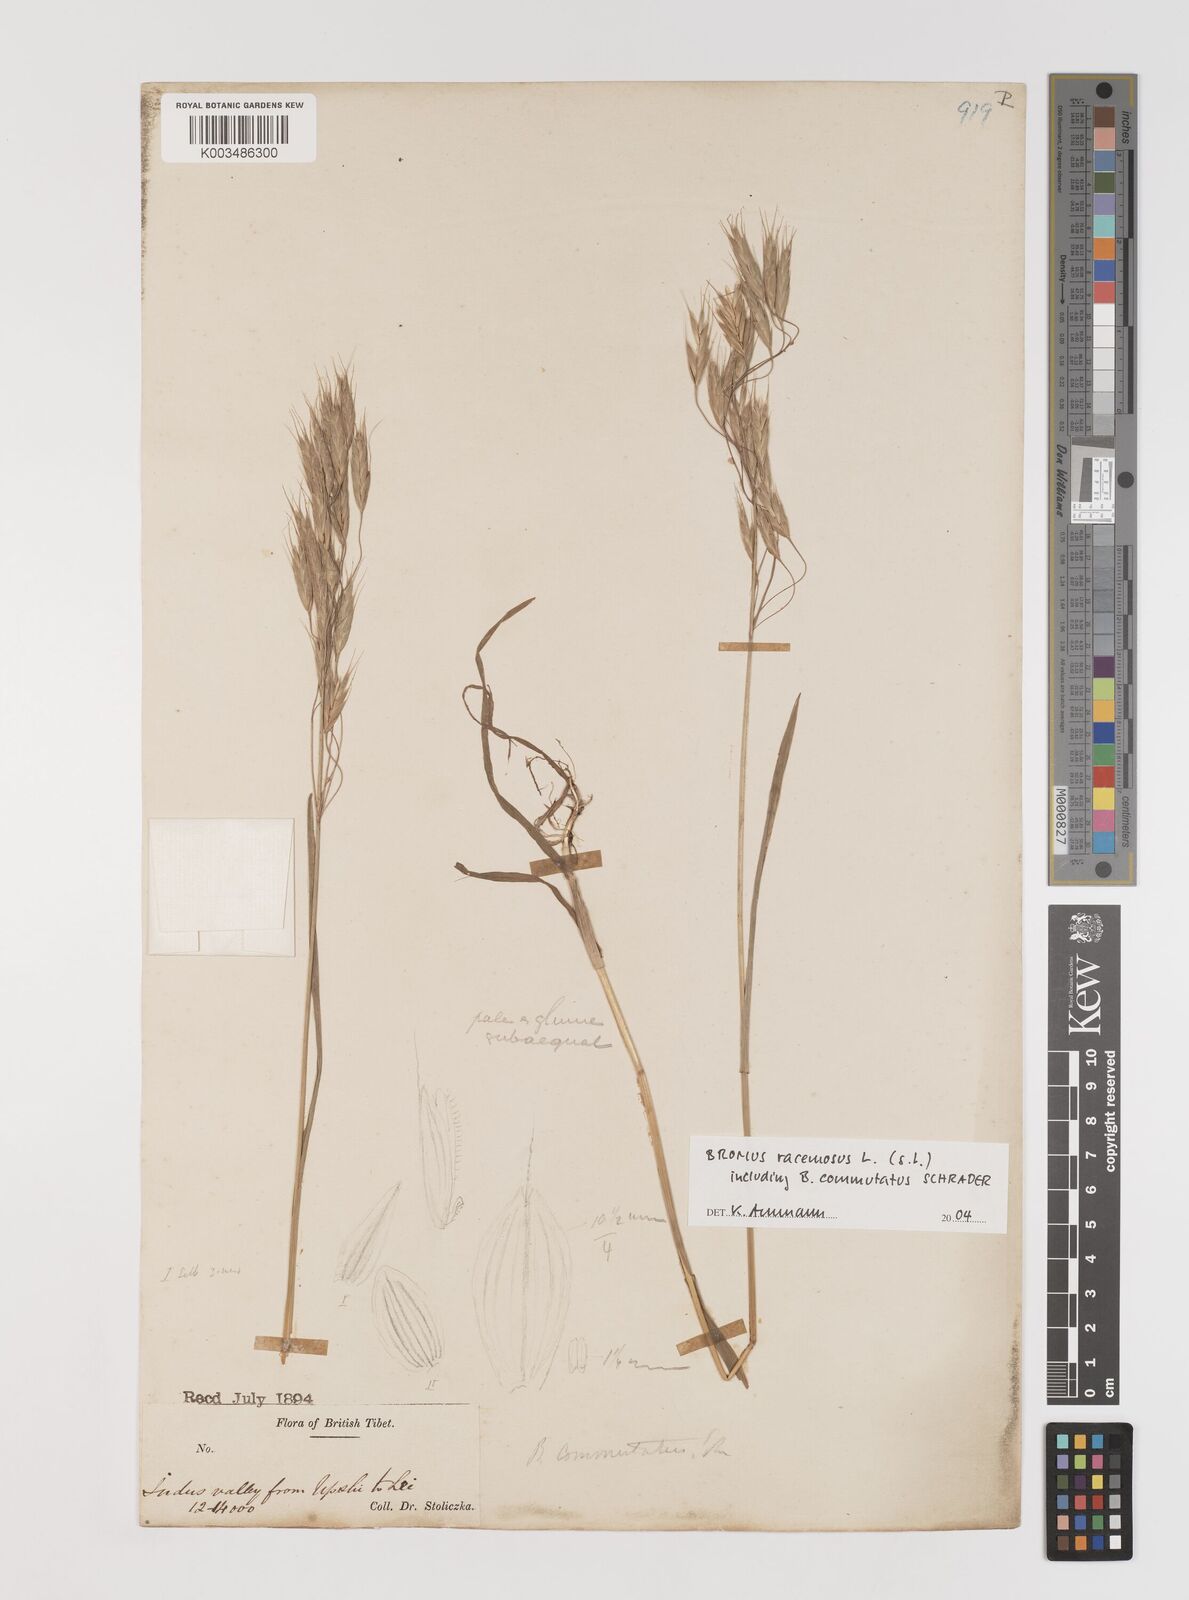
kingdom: Plantae
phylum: Tracheophyta
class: Liliopsida
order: Poales
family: Poaceae
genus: Bromus
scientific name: Bromus racemosus
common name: Bald brome
